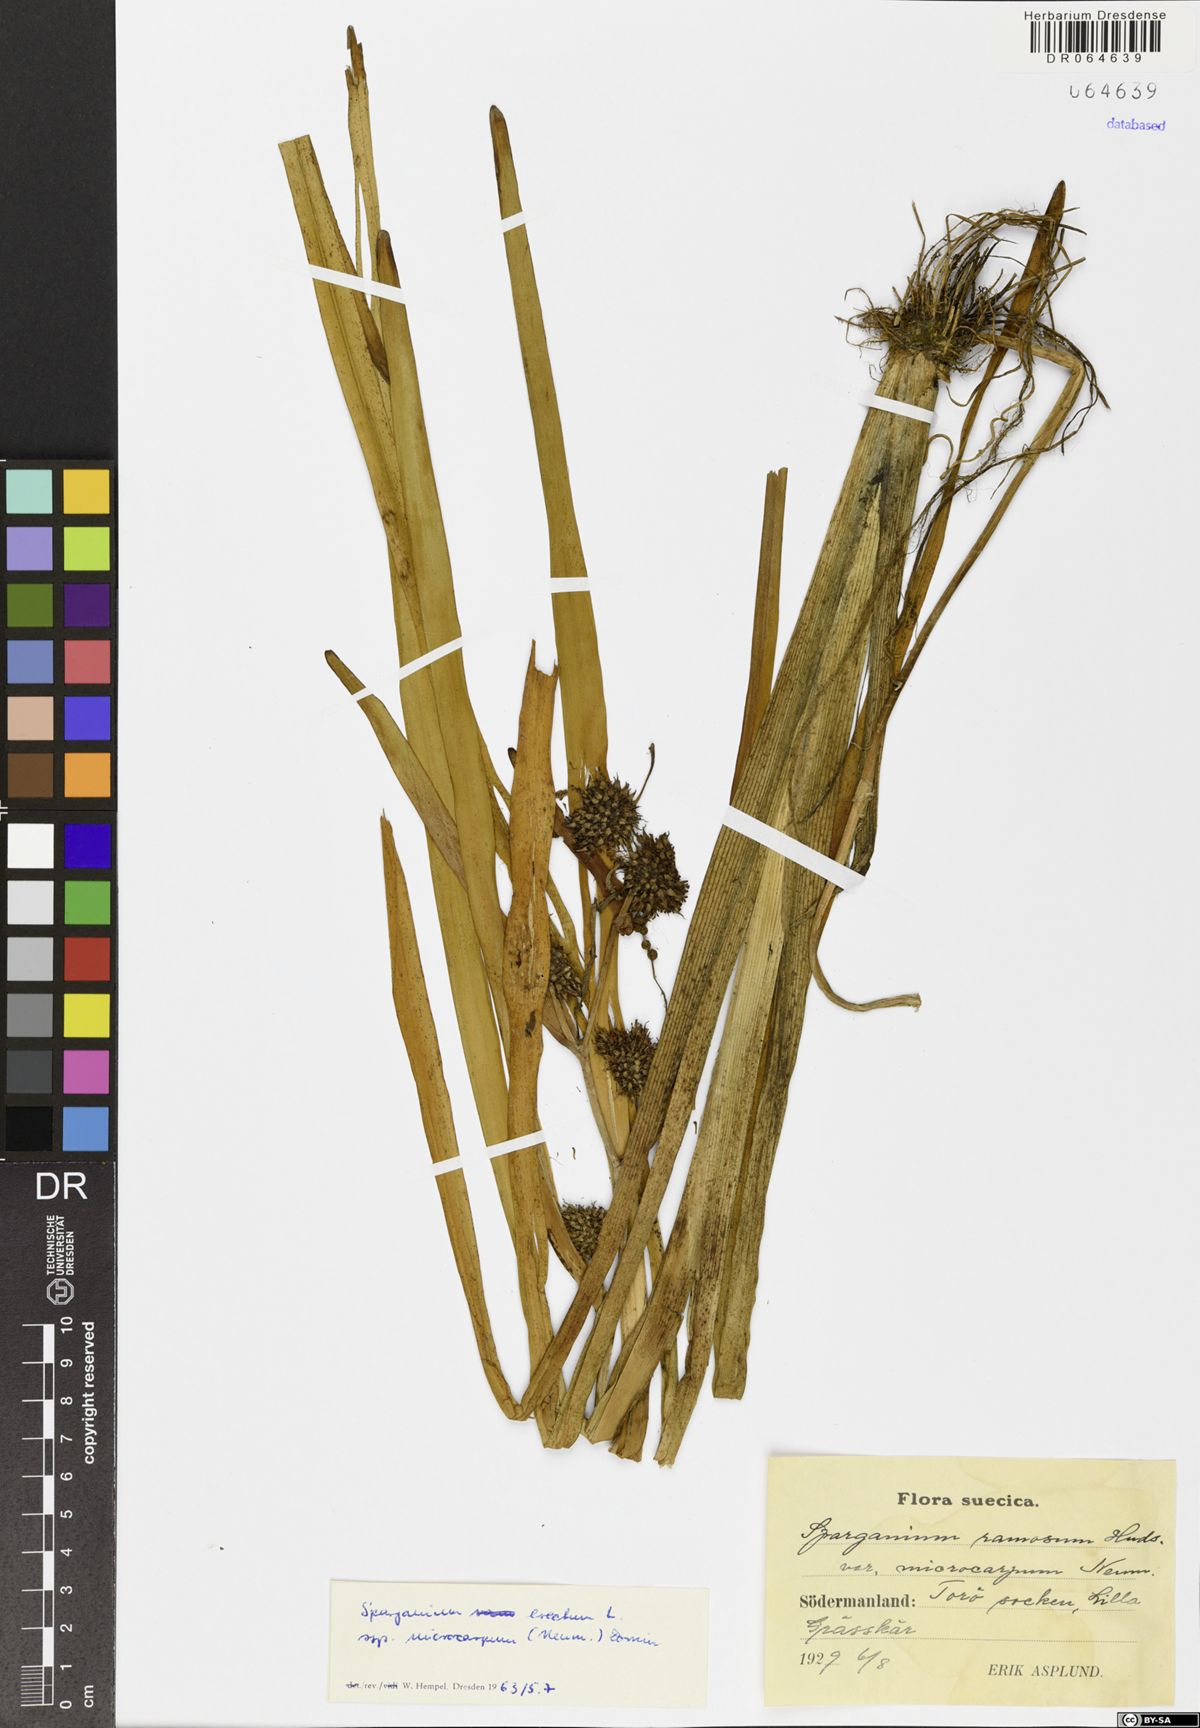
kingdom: Plantae
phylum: Tracheophyta
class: Liliopsida
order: Poales
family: Typhaceae
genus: Sparganium
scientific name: Sparganium erectum
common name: Branched bur-reed
